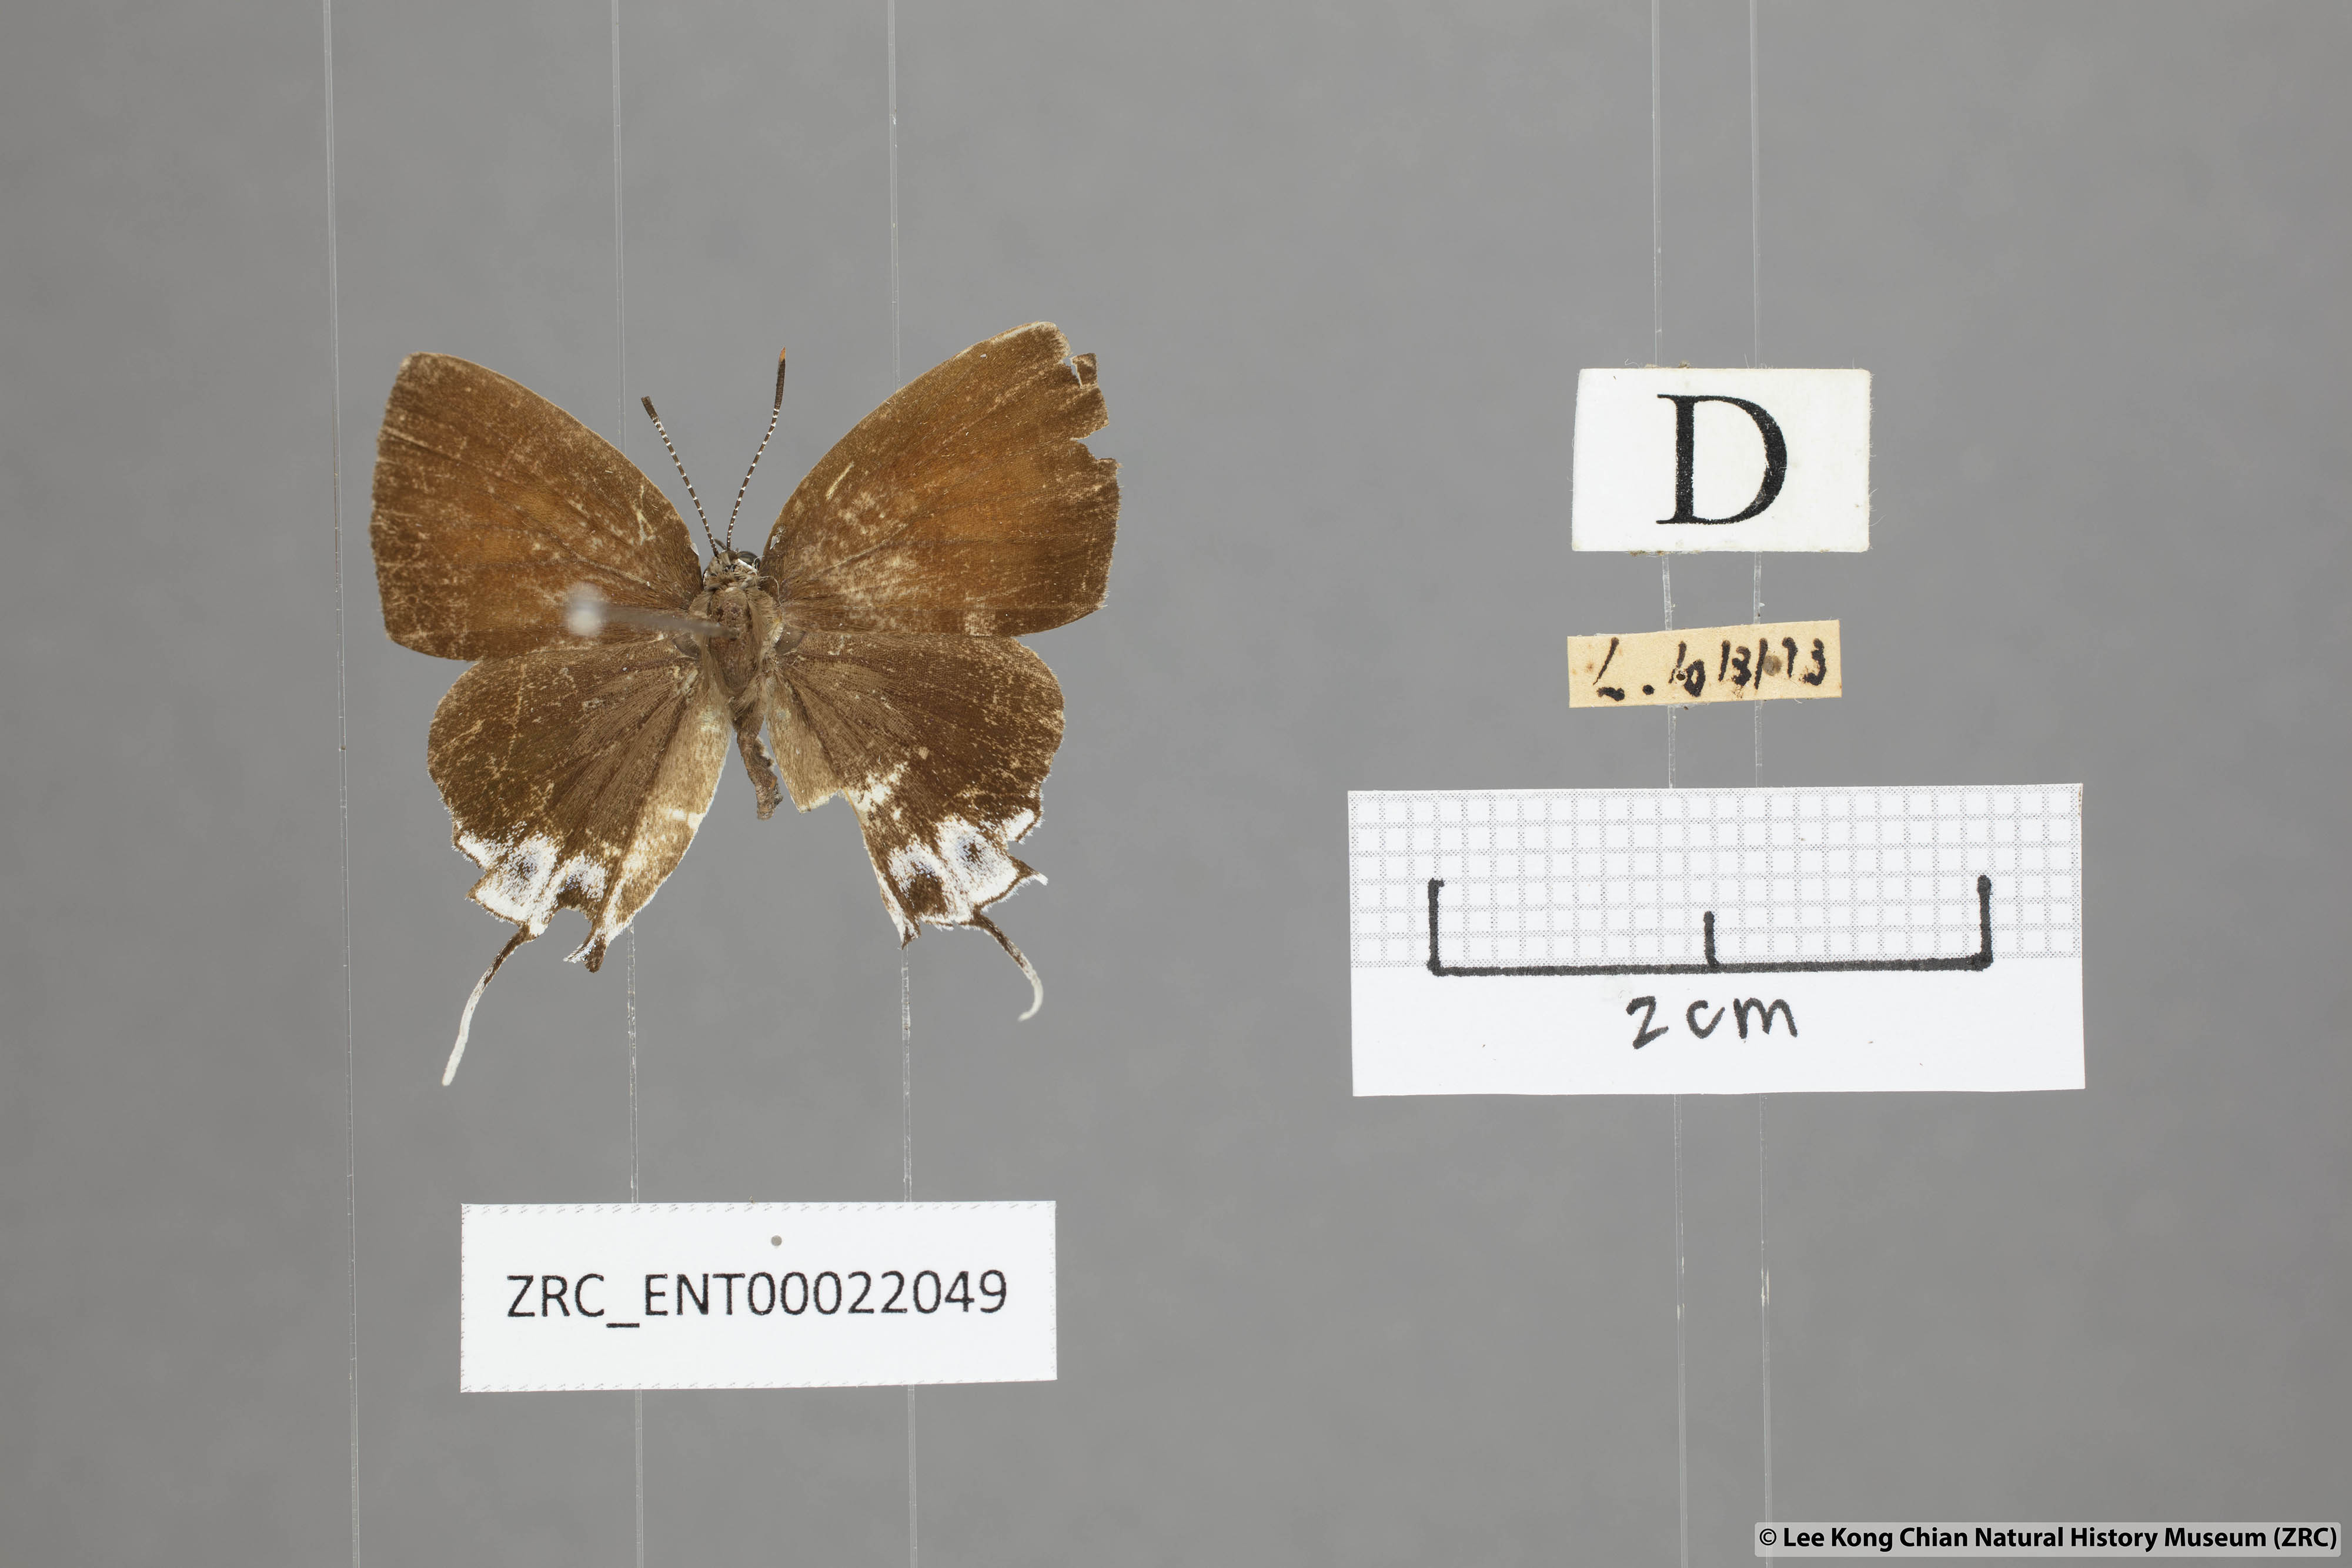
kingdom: Animalia
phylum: Arthropoda
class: Insecta
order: Lepidoptera
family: Lycaenidae
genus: Sithon
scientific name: Sithon nedymond
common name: Plush
